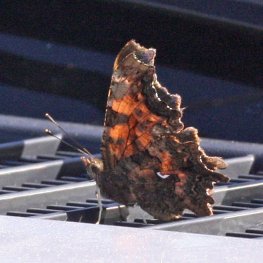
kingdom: Animalia
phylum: Arthropoda
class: Insecta
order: Lepidoptera
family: Nymphalidae
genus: Polygonia
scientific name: Polygonia faunus
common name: Green Comma
